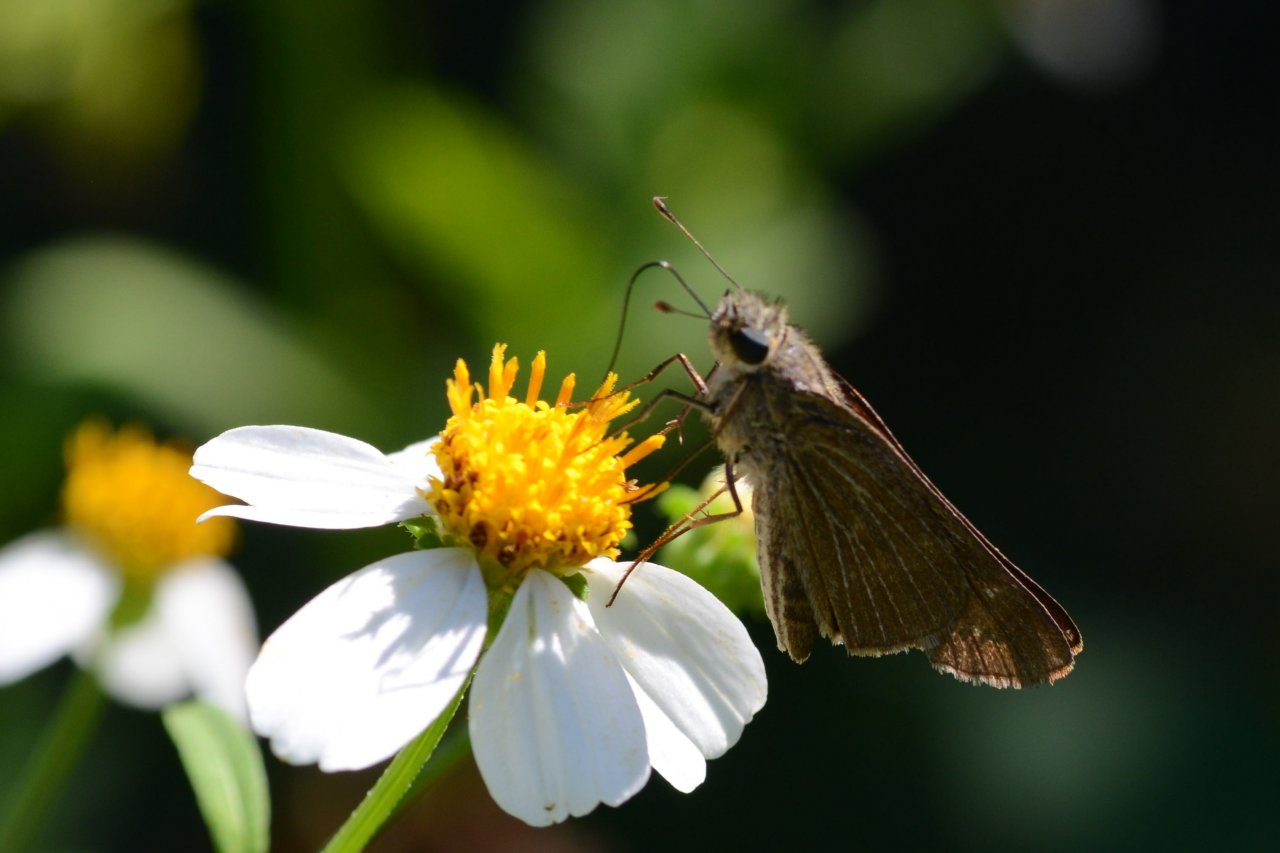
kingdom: Animalia
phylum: Arthropoda
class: Insecta
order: Lepidoptera
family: Hesperiidae
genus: Panoquina
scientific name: Panoquina ocola
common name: Ocola Skipper
